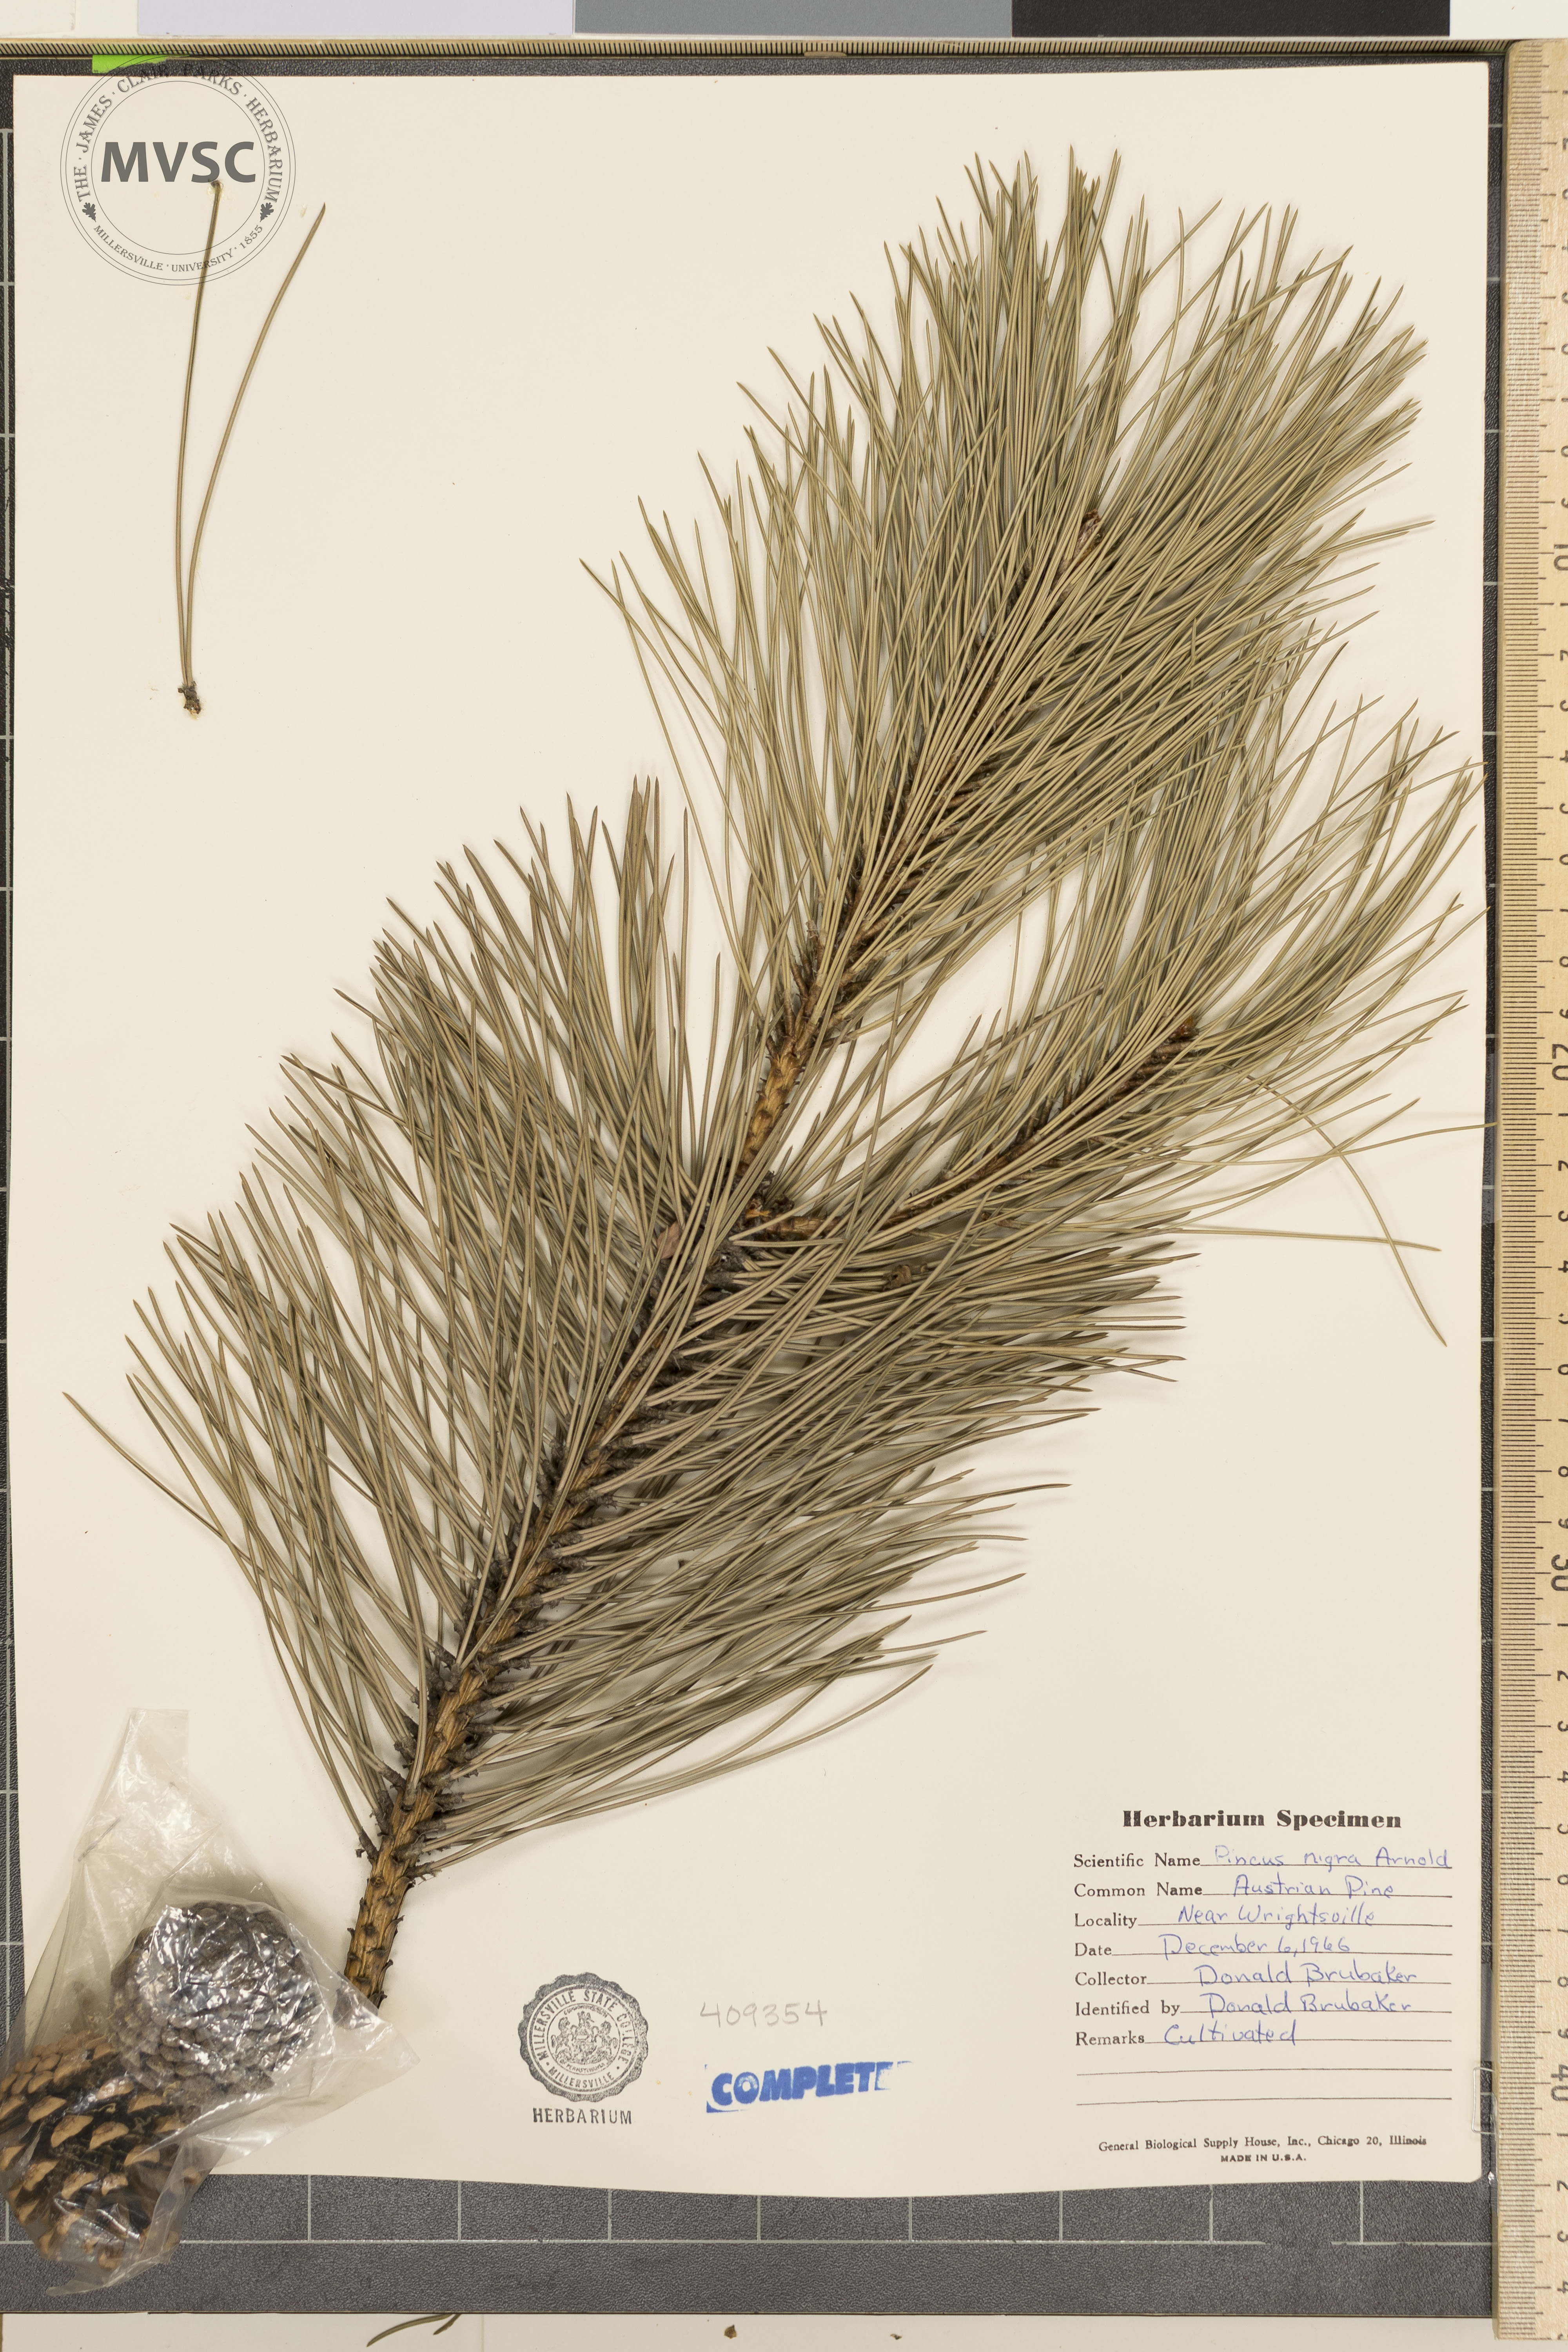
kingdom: Plantae
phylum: Tracheophyta
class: Pinopsida
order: Pinales
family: Pinaceae
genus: Pinus
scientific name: Pinus nigra
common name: Austrian pine
